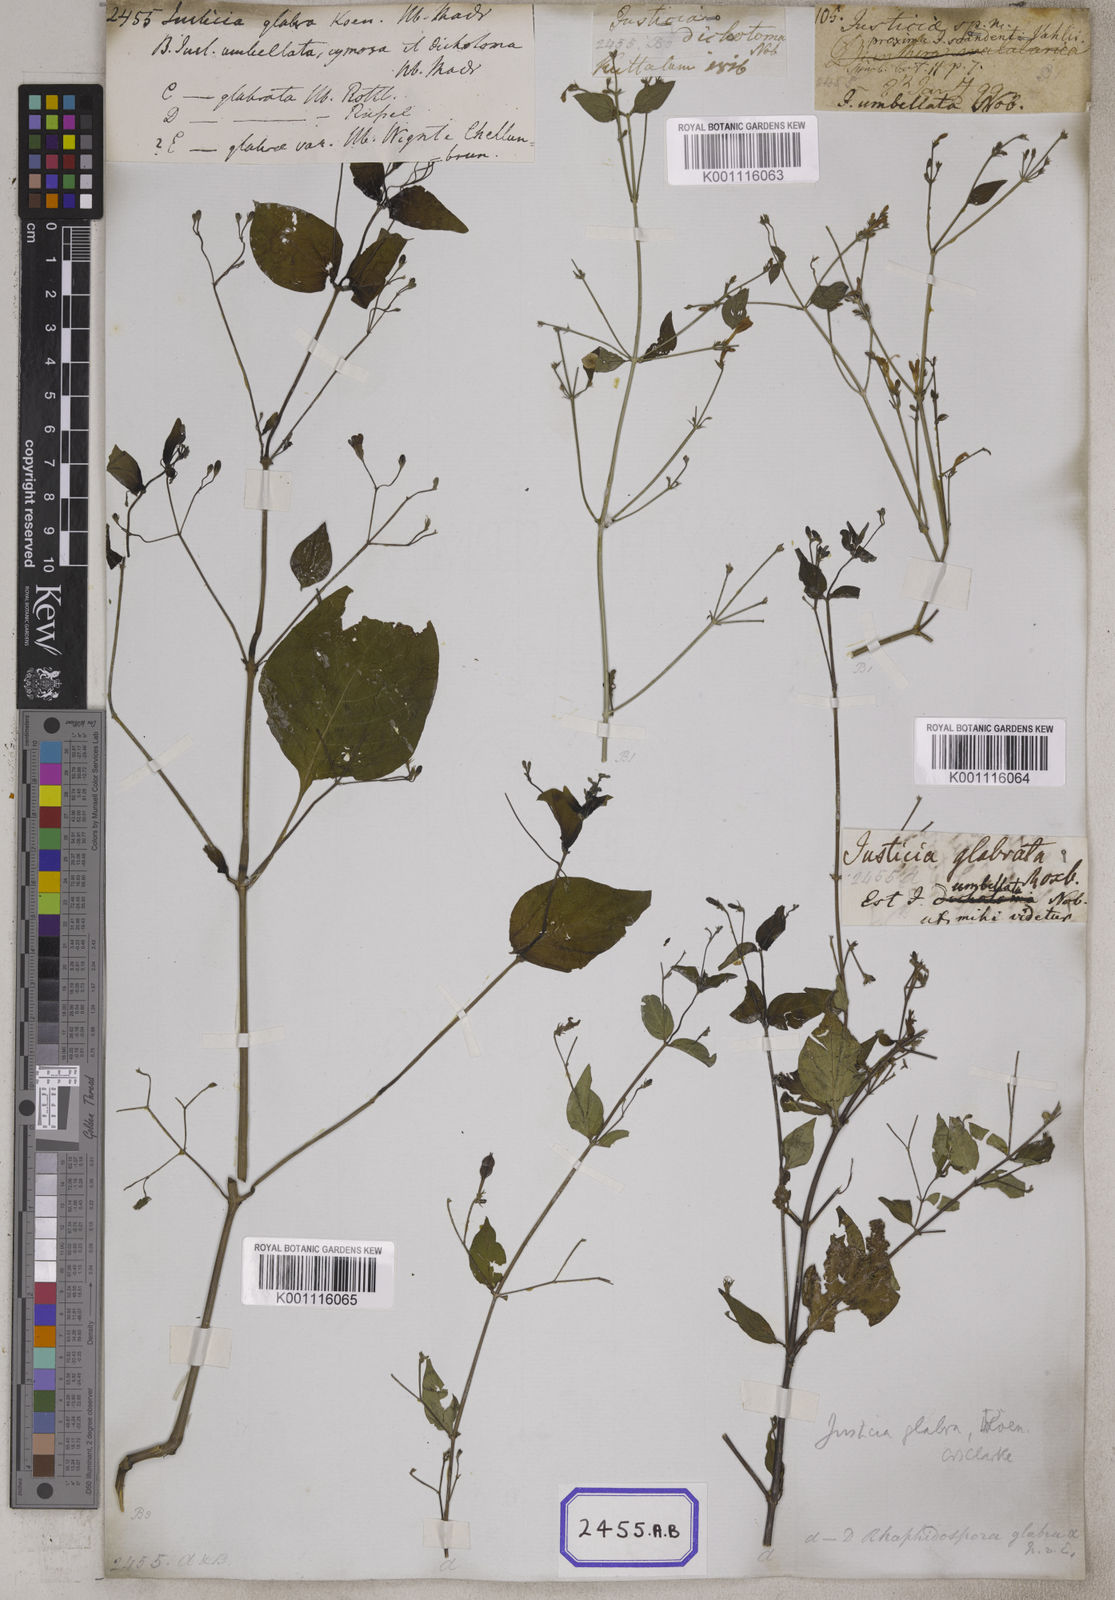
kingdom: Plantae
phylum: Tracheophyta
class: Magnoliopsida
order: Lamiales
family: Acanthaceae
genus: Justicia
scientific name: Justicia
